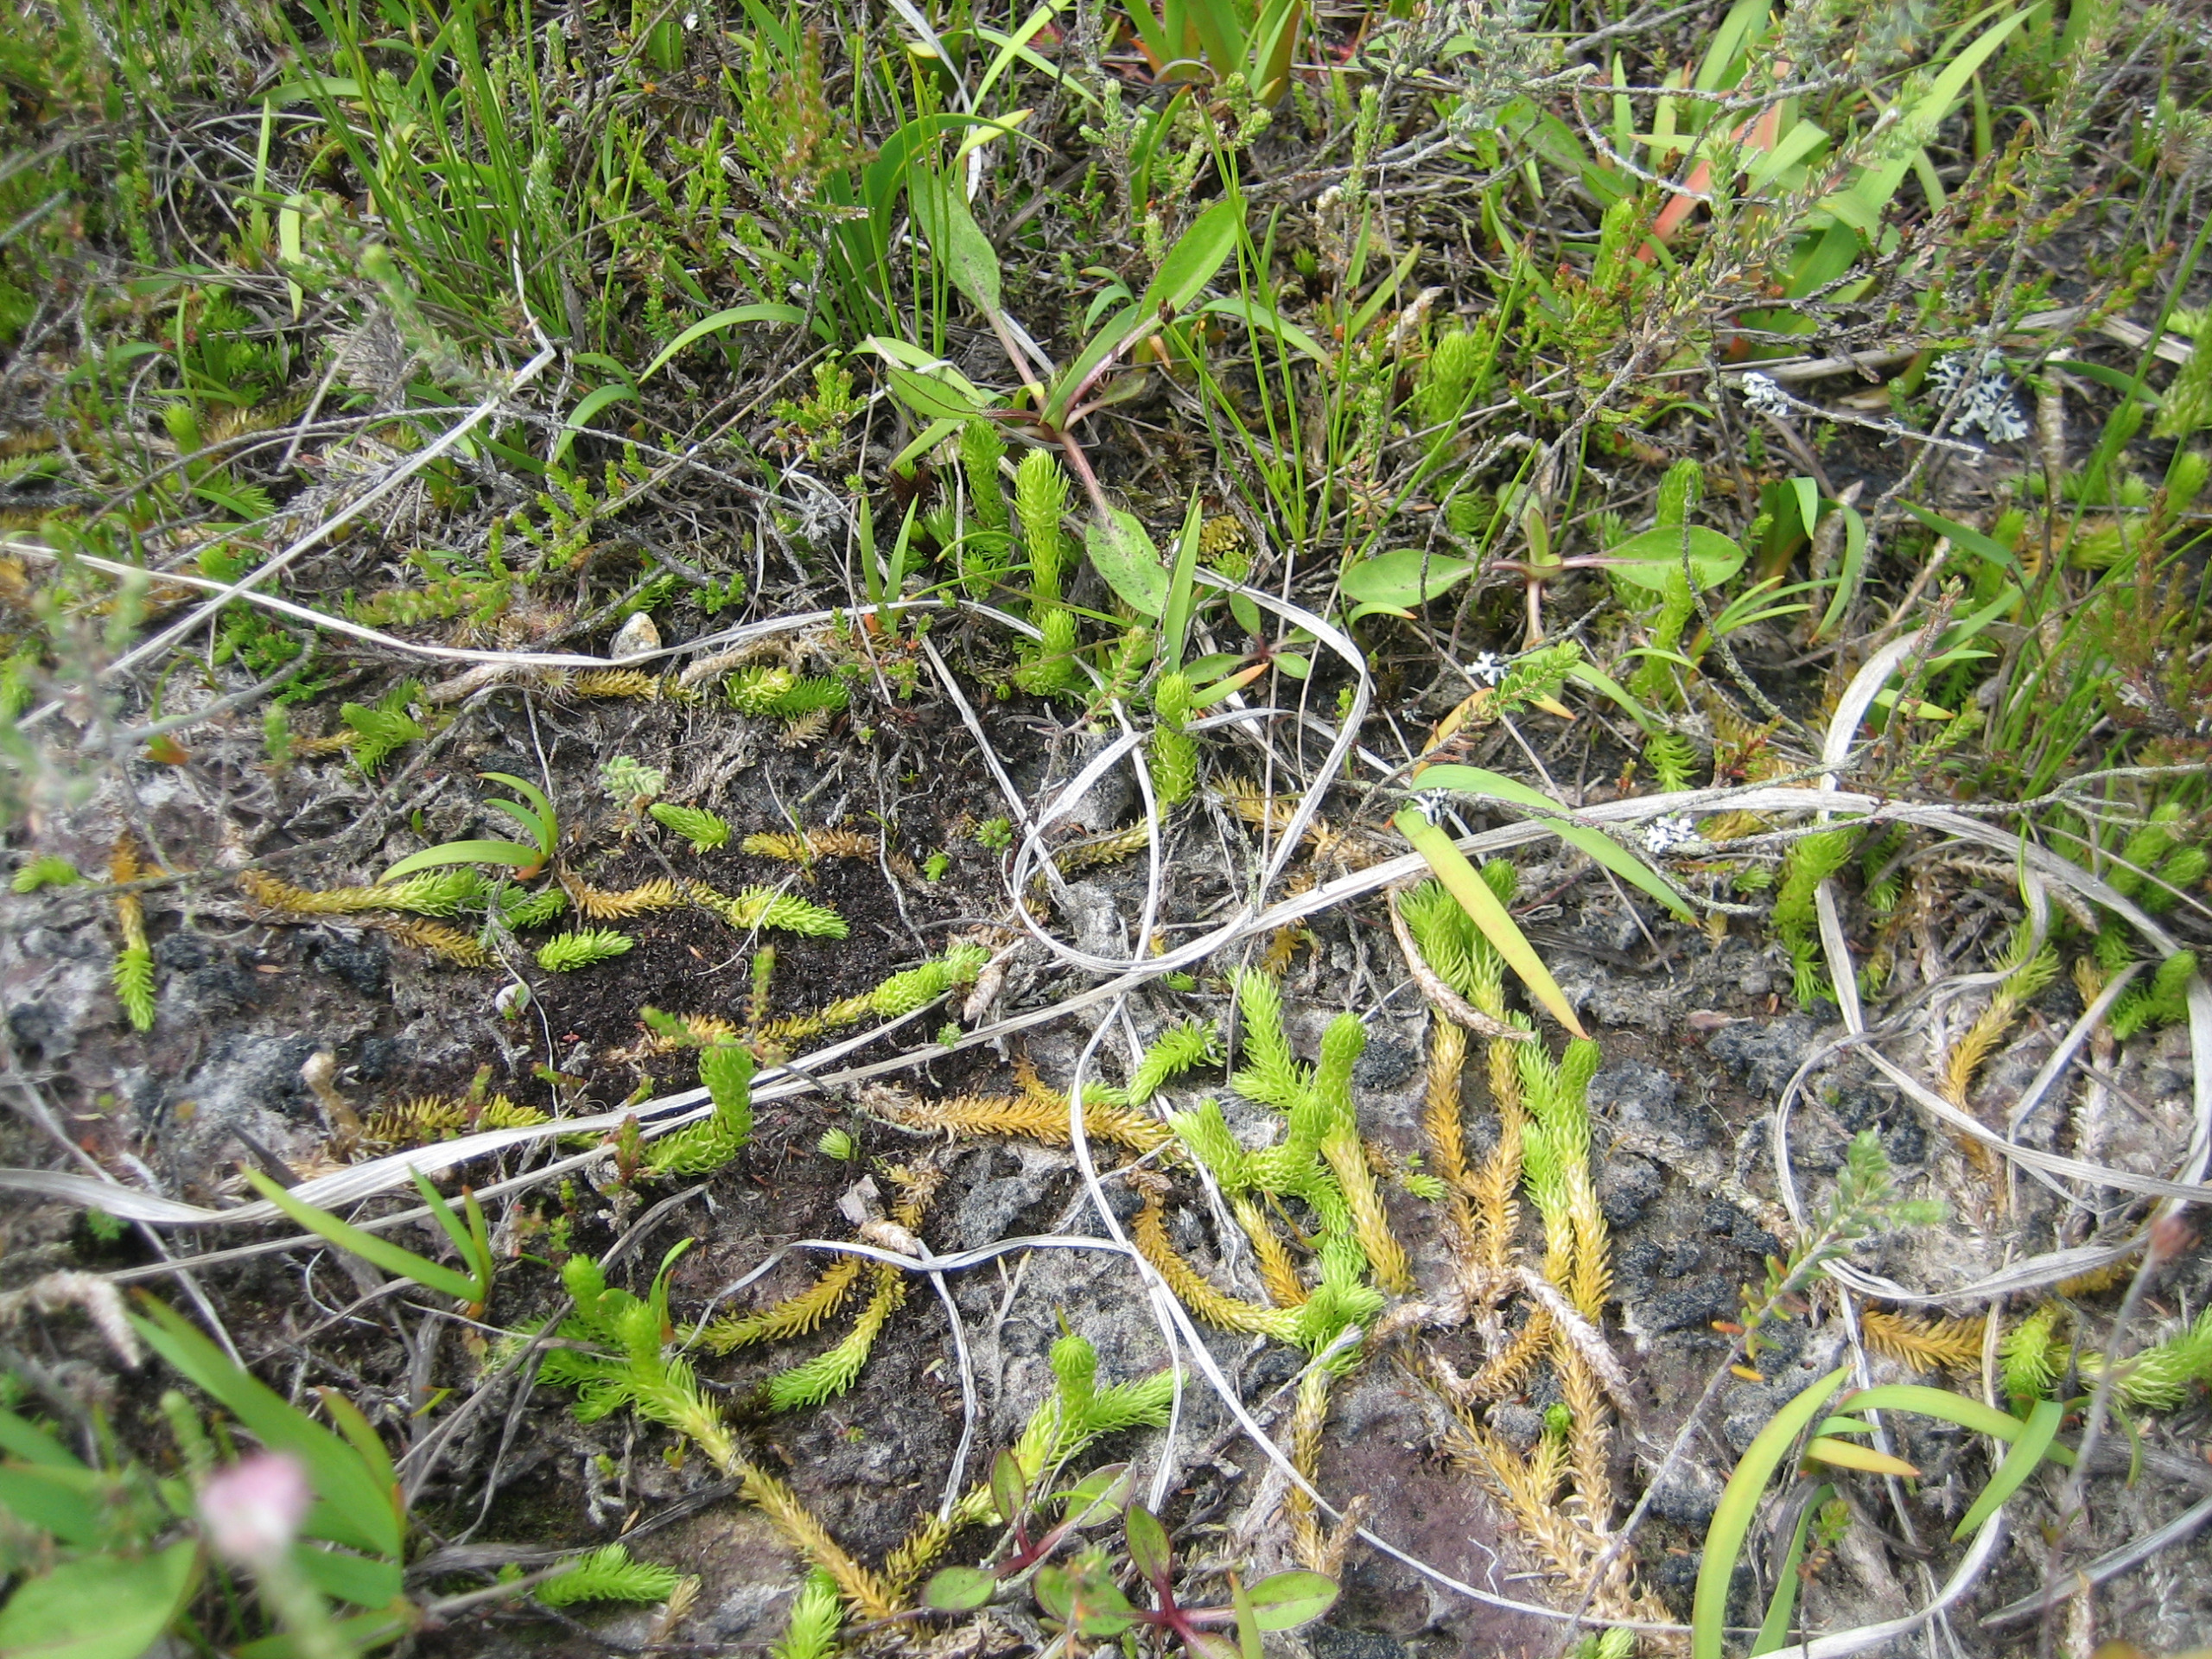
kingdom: Plantae
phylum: Tracheophyta
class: Lycopodiopsida
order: Lycopodiales
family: Lycopodiaceae
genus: Lycopodiella
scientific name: Lycopodiella inundata
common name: Liden ulvefod
